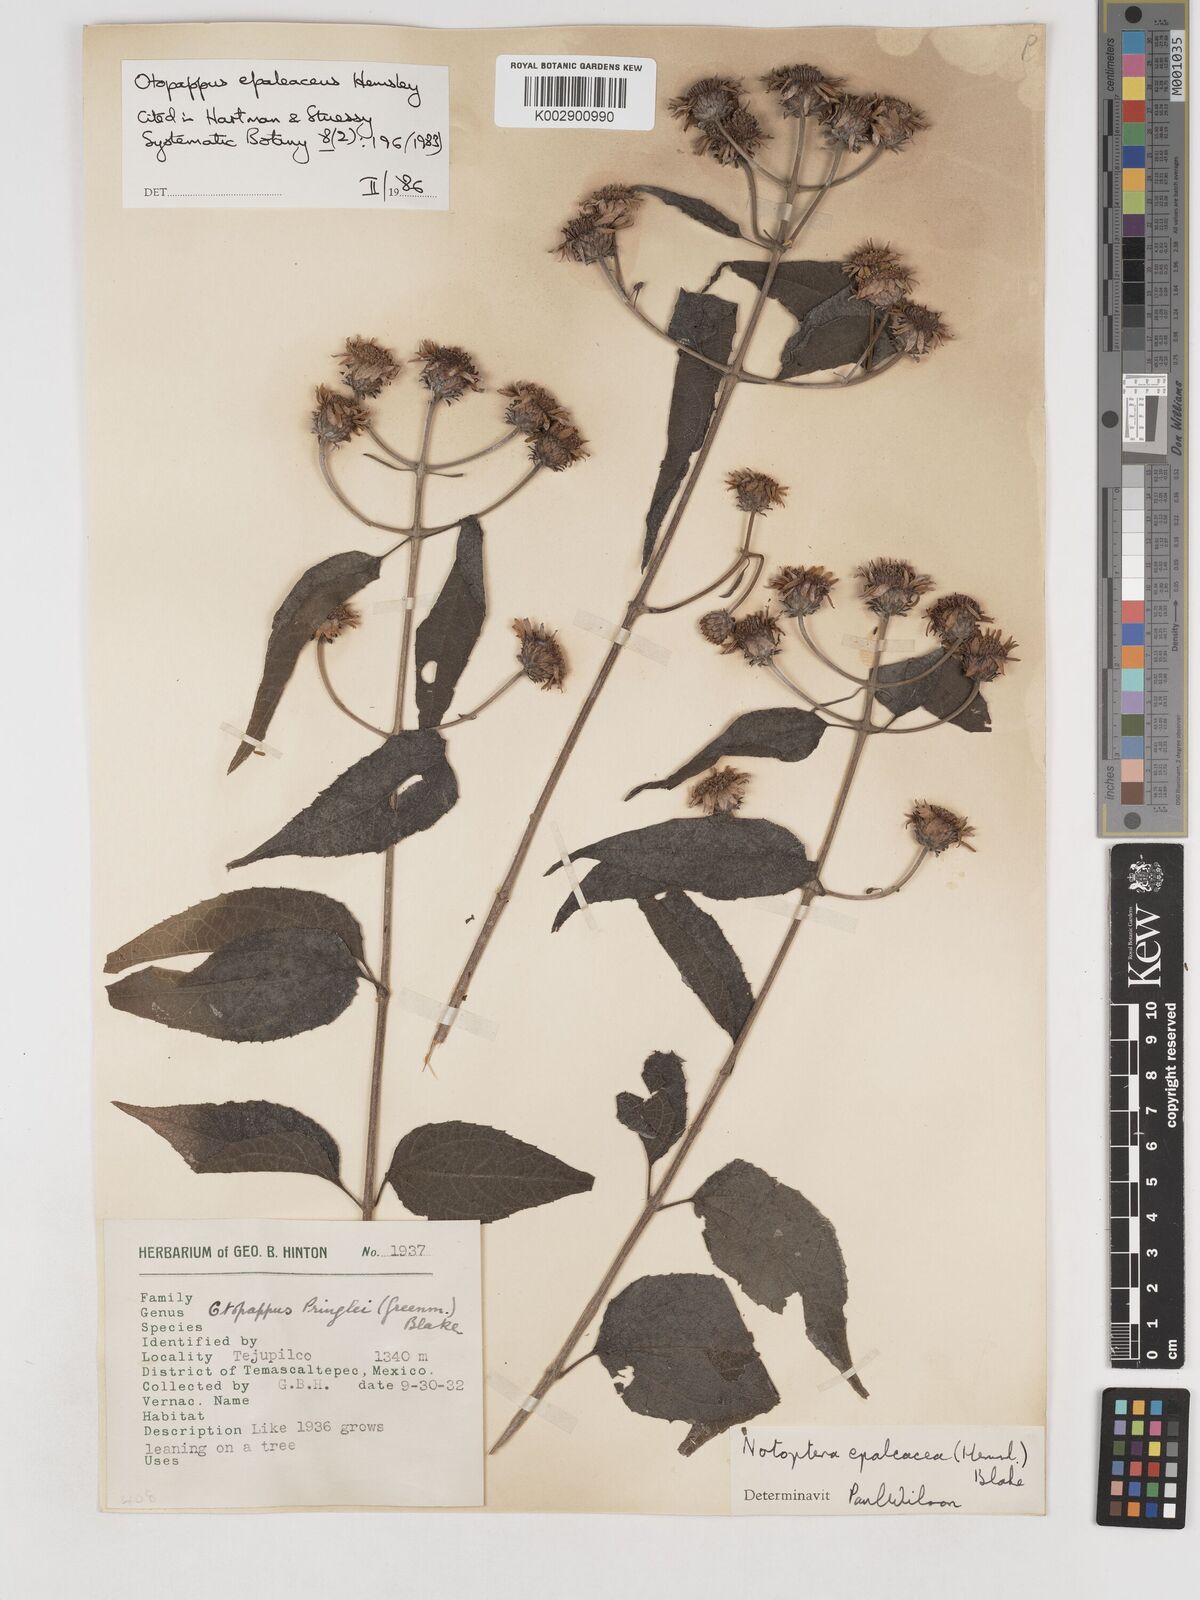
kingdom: Plantae
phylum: Tracheophyta
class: Magnoliopsida
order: Asterales
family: Asteraceae
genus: Otopappus
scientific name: Otopappus epaleaceus
